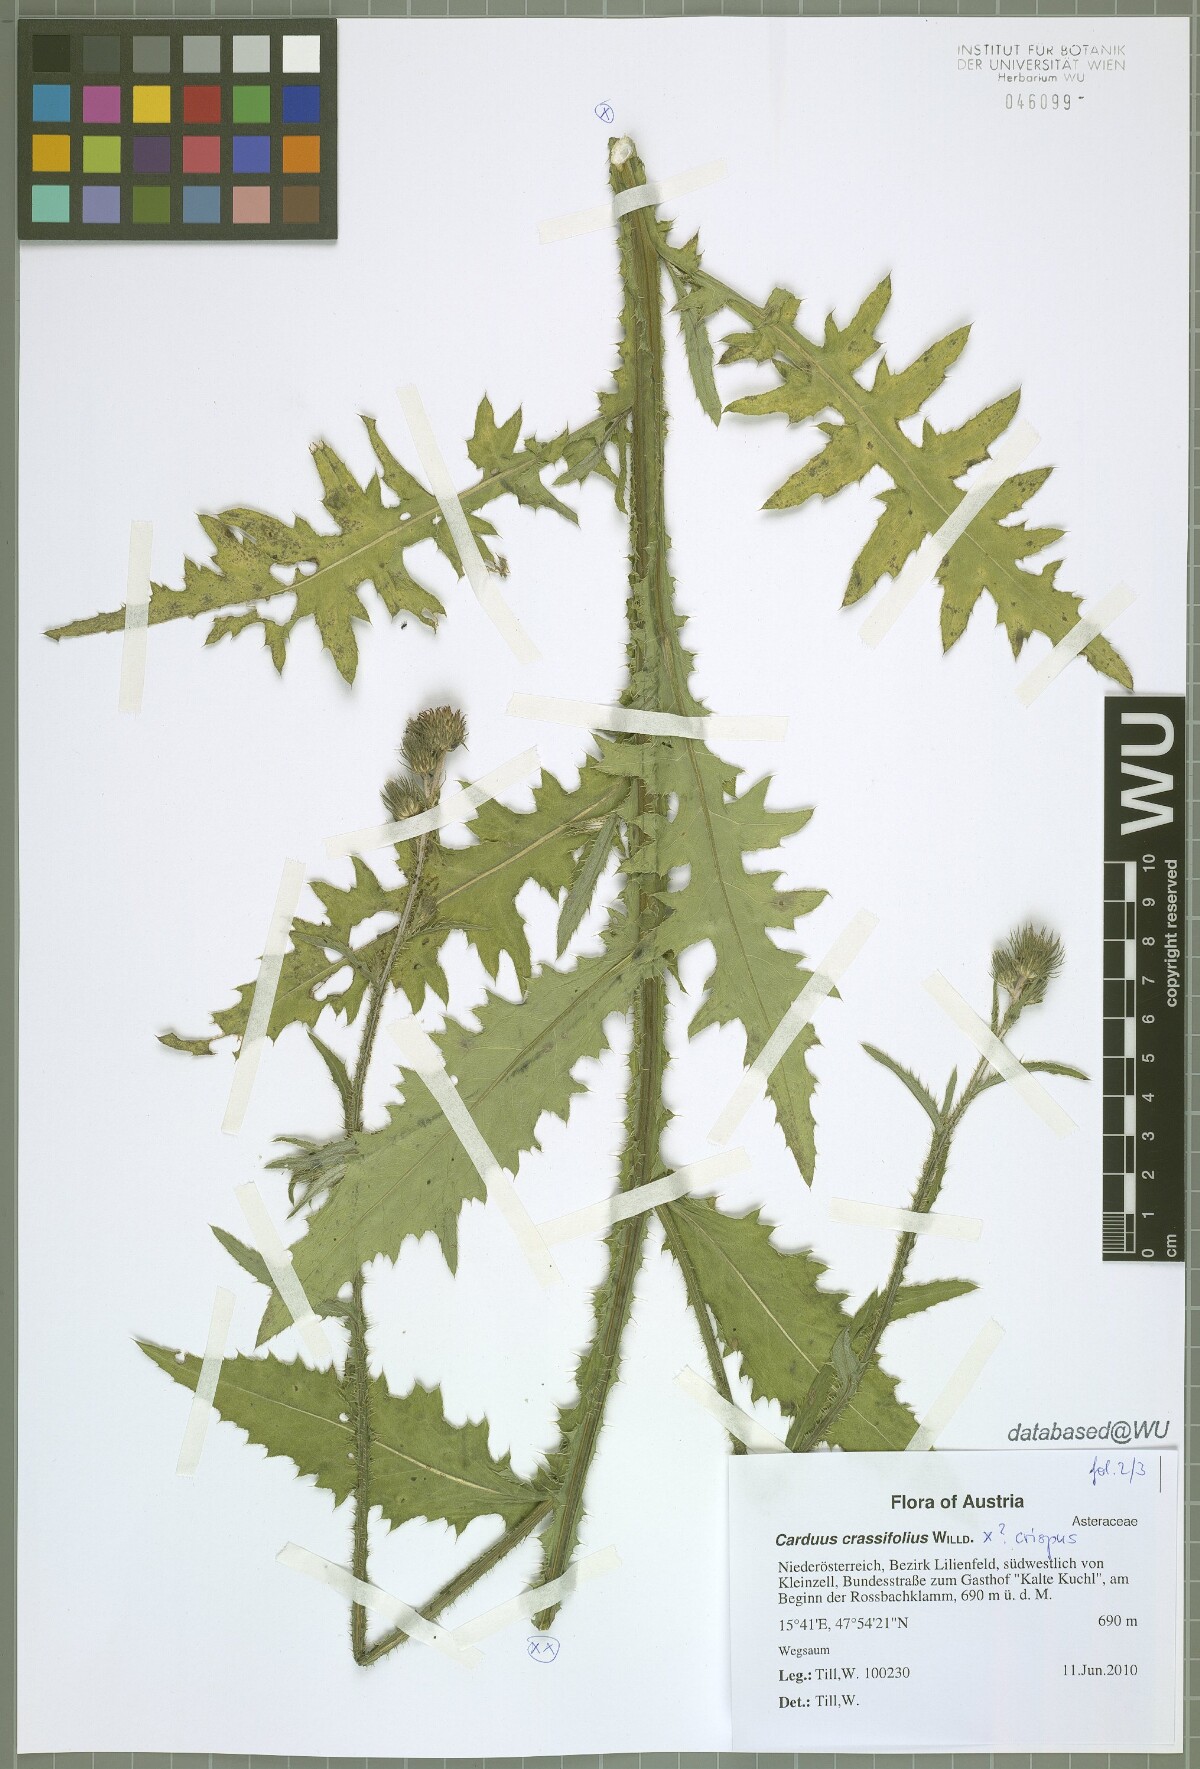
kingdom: Plantae
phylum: Tracheophyta
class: Magnoliopsida
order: Asterales
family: Asteraceae
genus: Carduus
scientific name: Carduus defloratus
